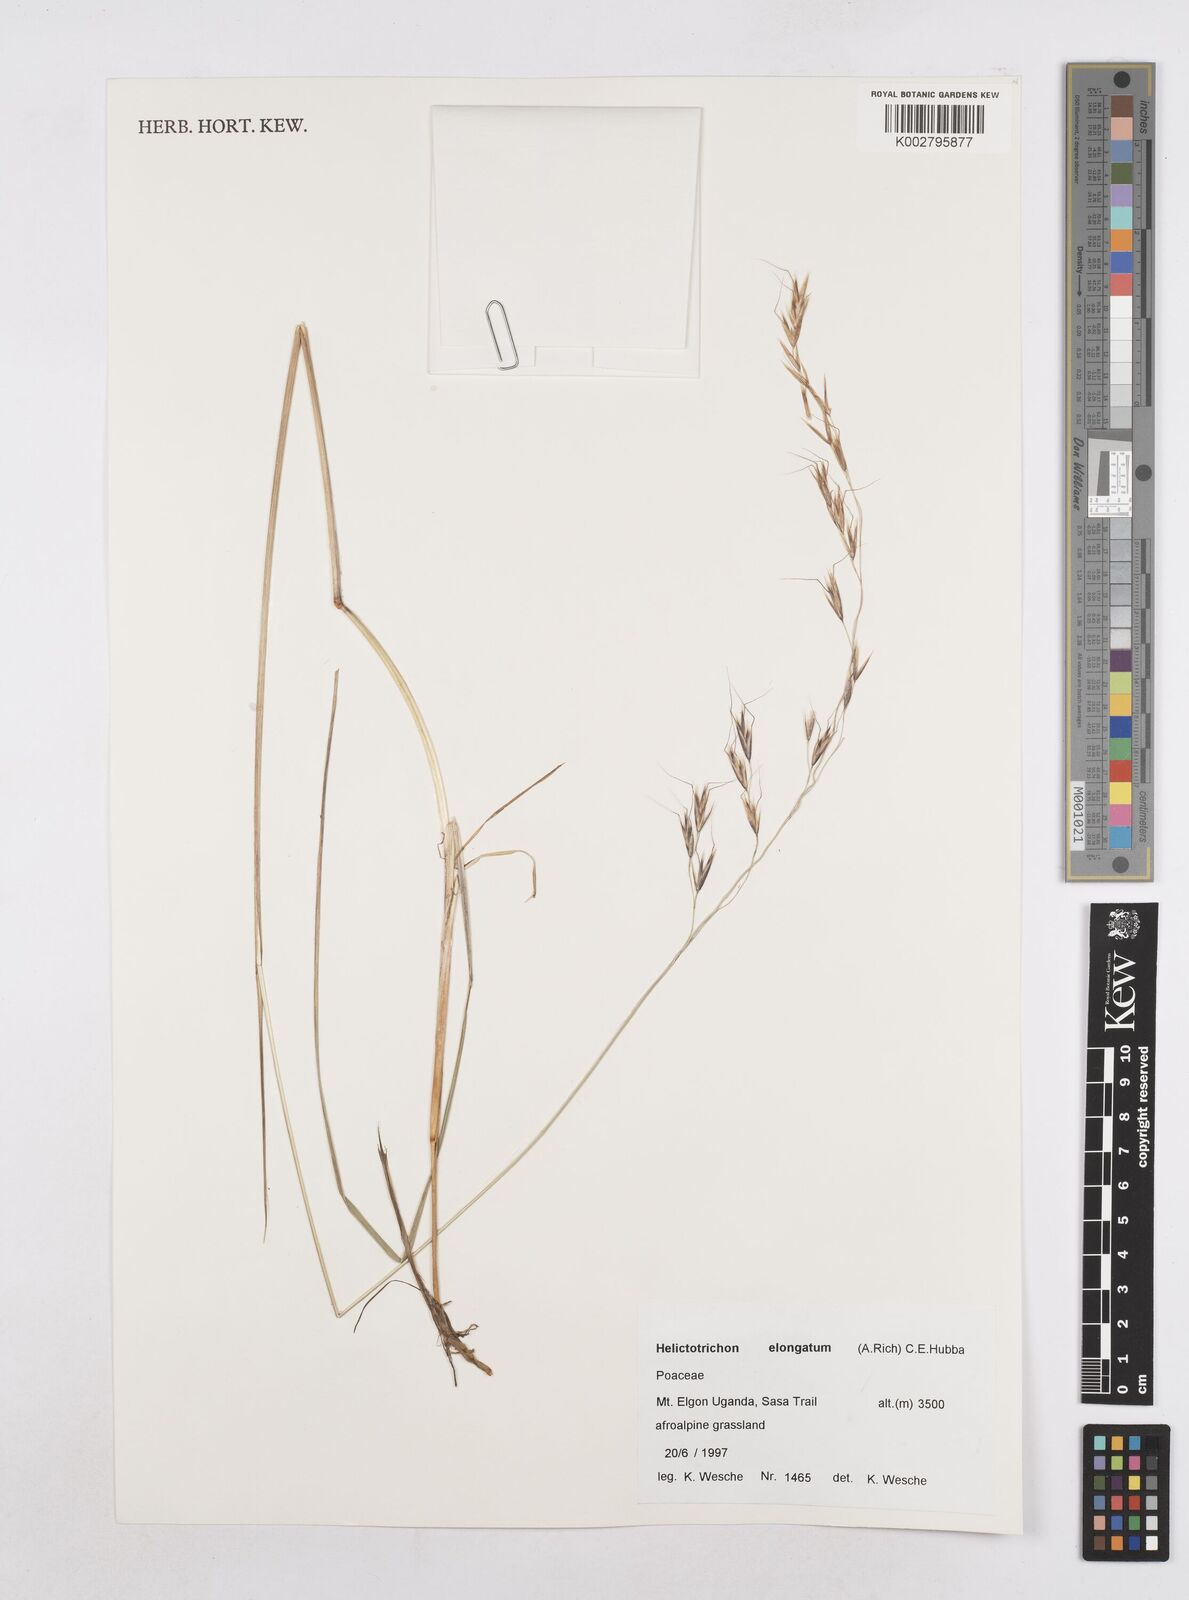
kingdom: Plantae
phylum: Tracheophyta
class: Liliopsida
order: Poales
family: Poaceae
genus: Trisetopsis
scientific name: Trisetopsis elongata
